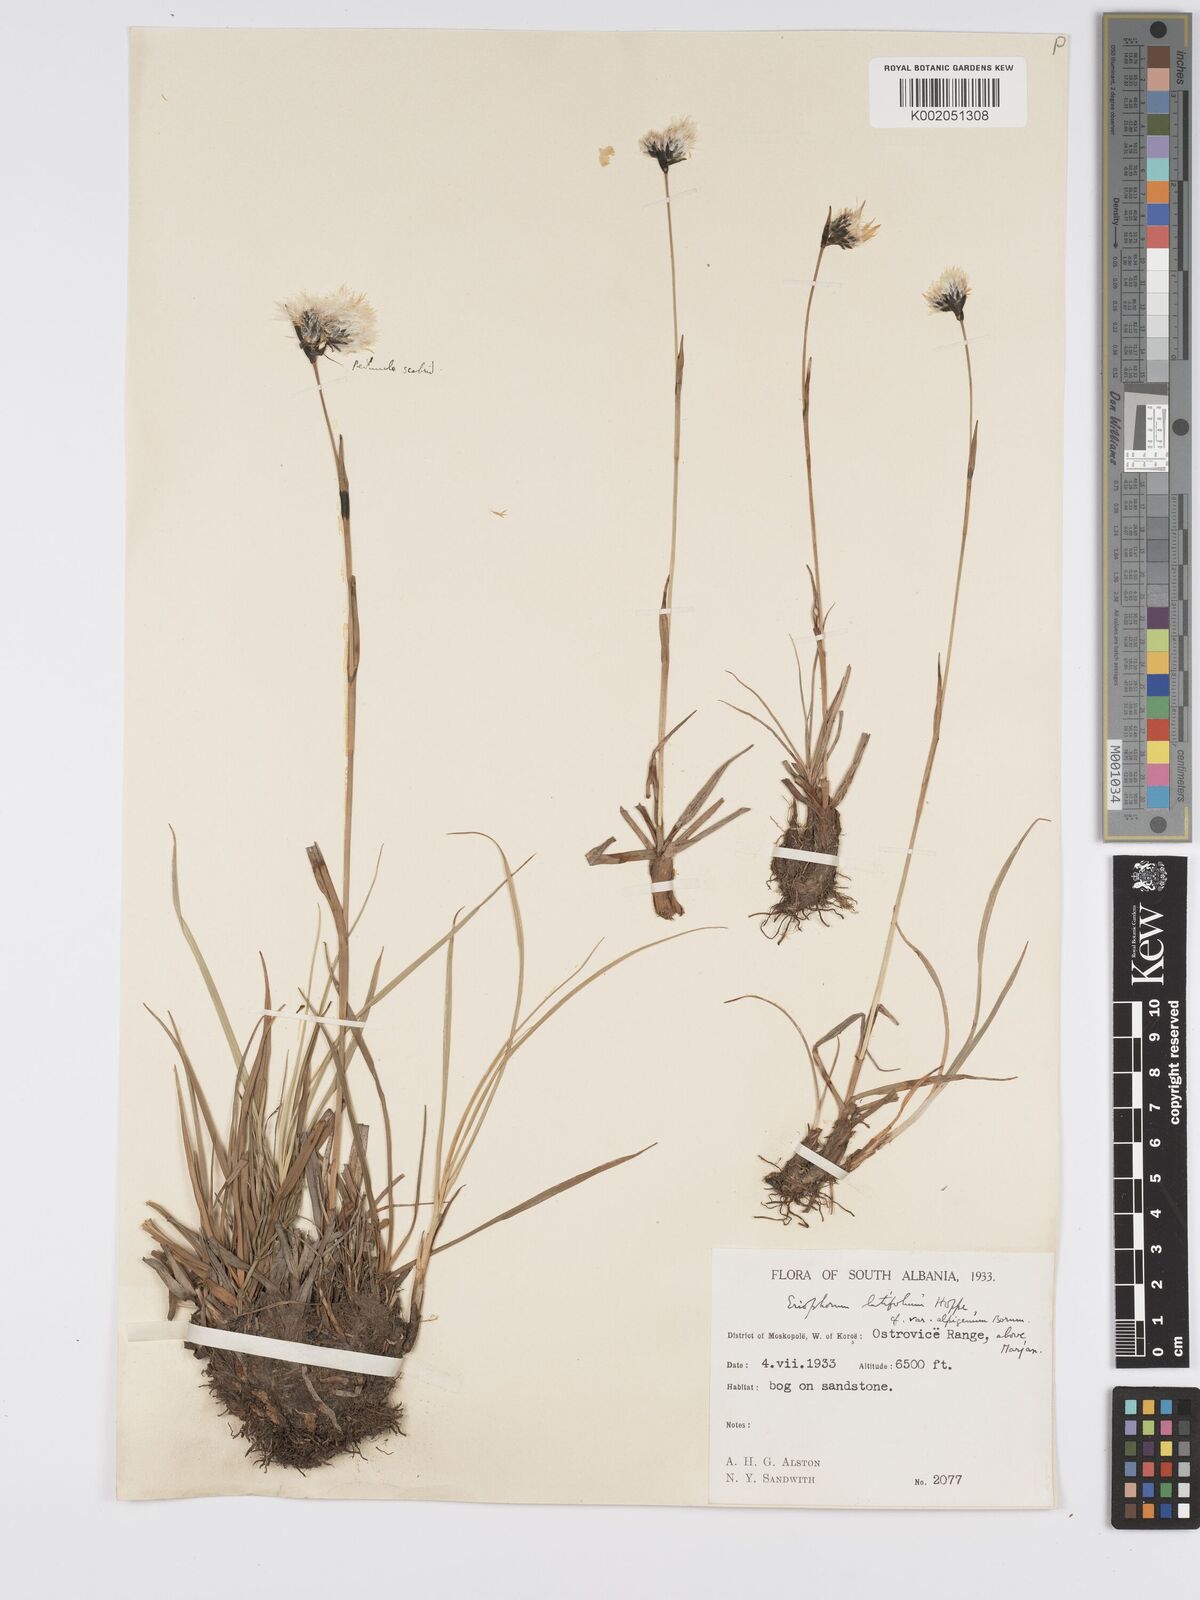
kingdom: Plantae
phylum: Tracheophyta
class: Liliopsida
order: Poales
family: Cyperaceae
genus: Eriophorum
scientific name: Eriophorum latifolium
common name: Broad-leaved cottongrass
